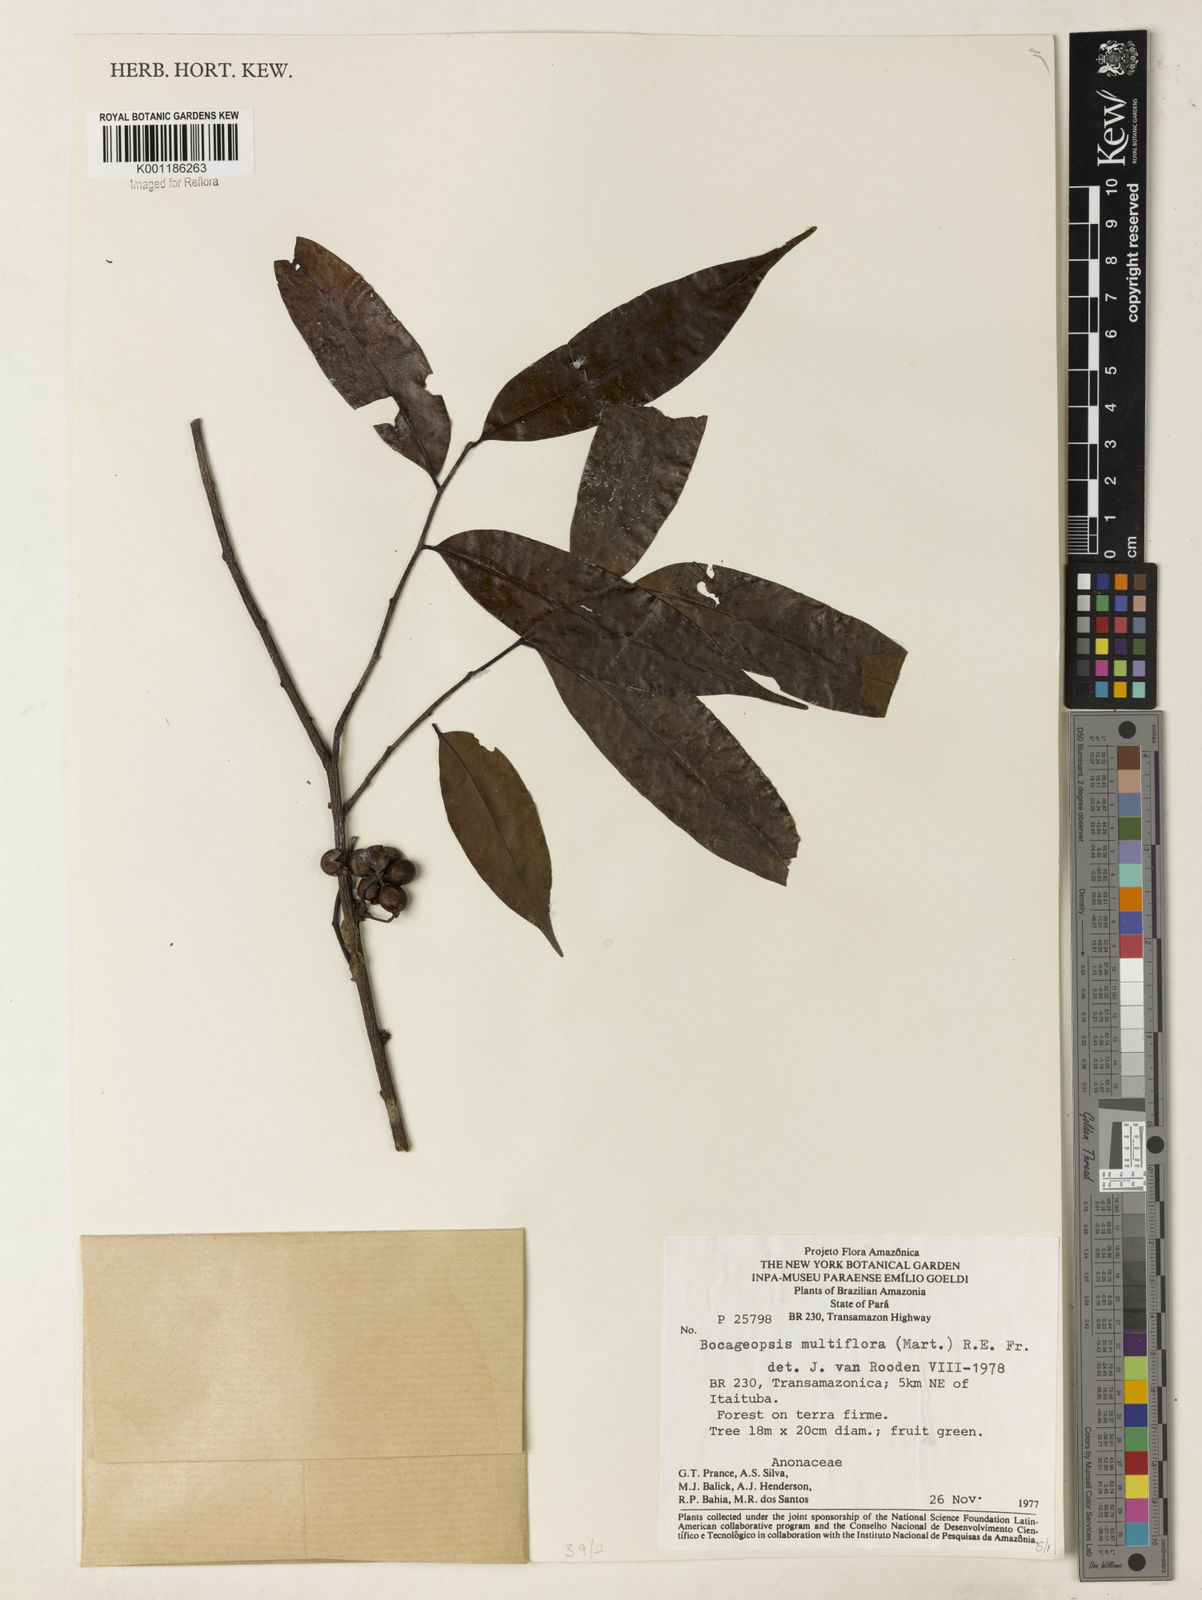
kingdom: Plantae
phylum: Tracheophyta
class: Magnoliopsida
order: Magnoliales
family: Annonaceae
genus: Bocageopsis
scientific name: Bocageopsis multiflora
